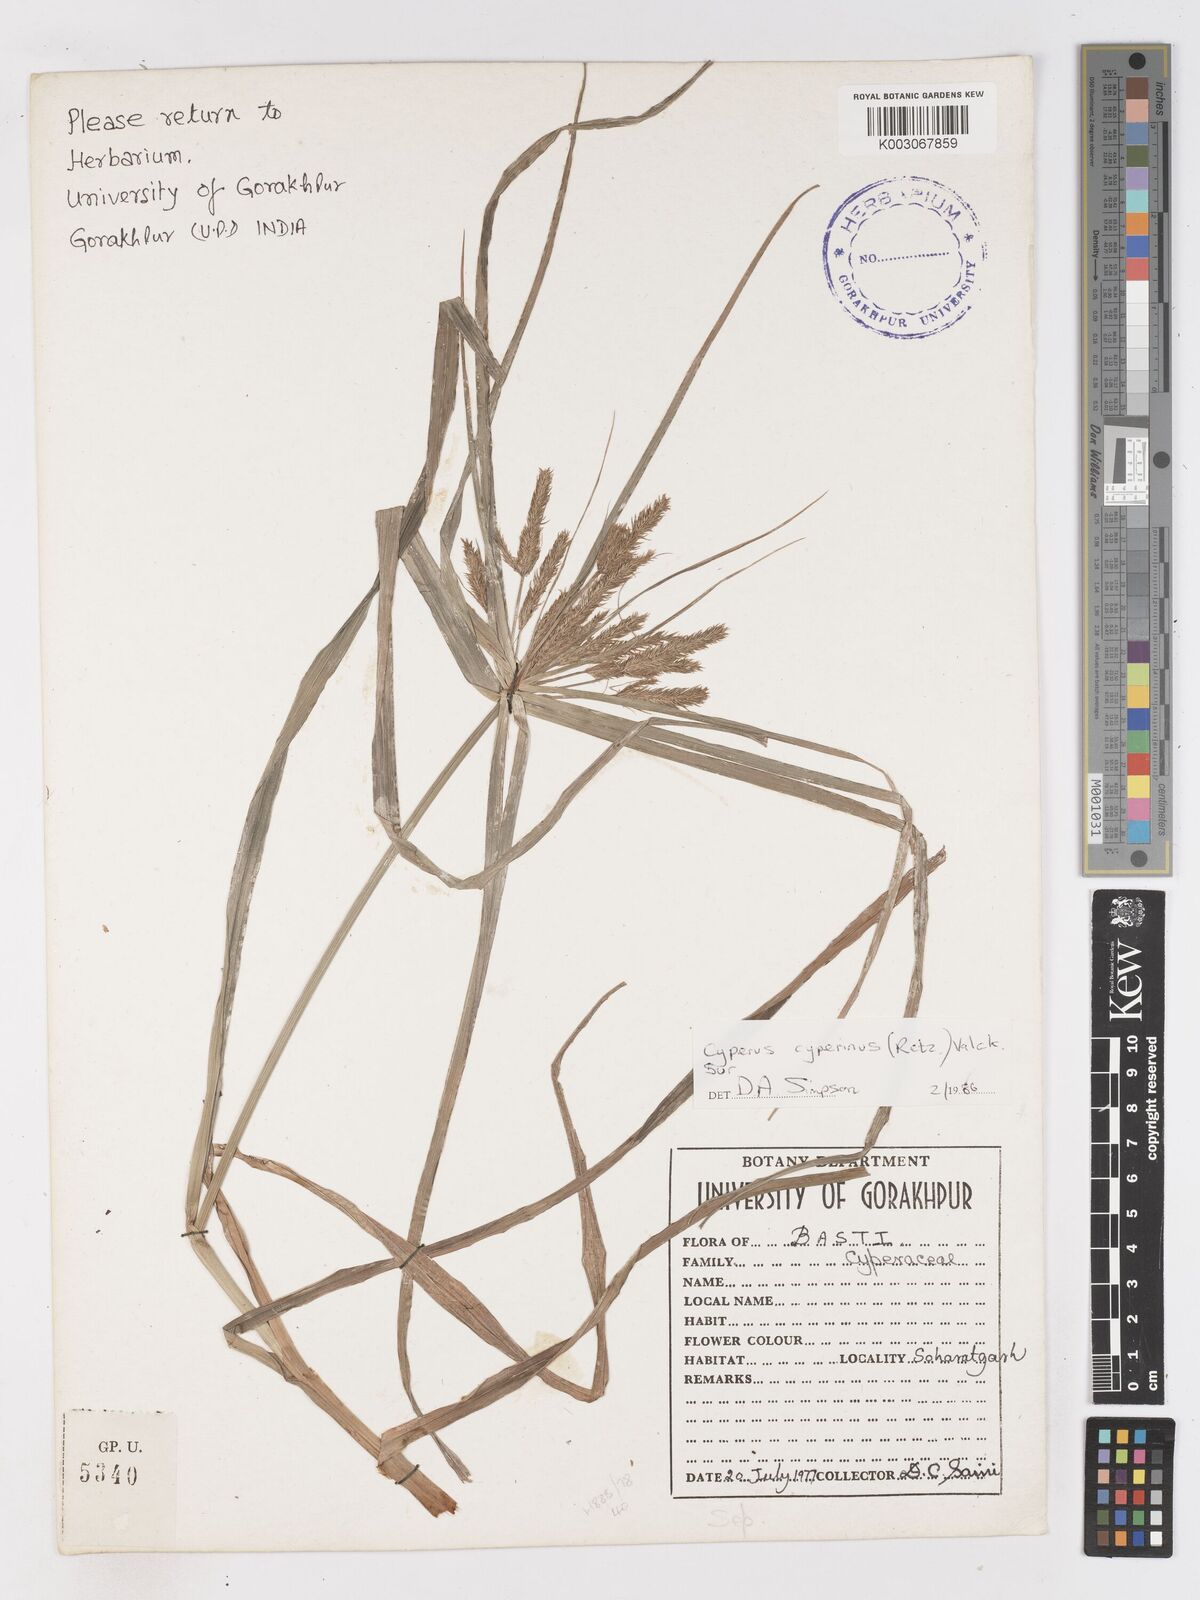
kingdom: Plantae
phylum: Tracheophyta
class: Liliopsida
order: Poales
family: Cyperaceae
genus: Cyperus
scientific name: Cyperus cyperinus
